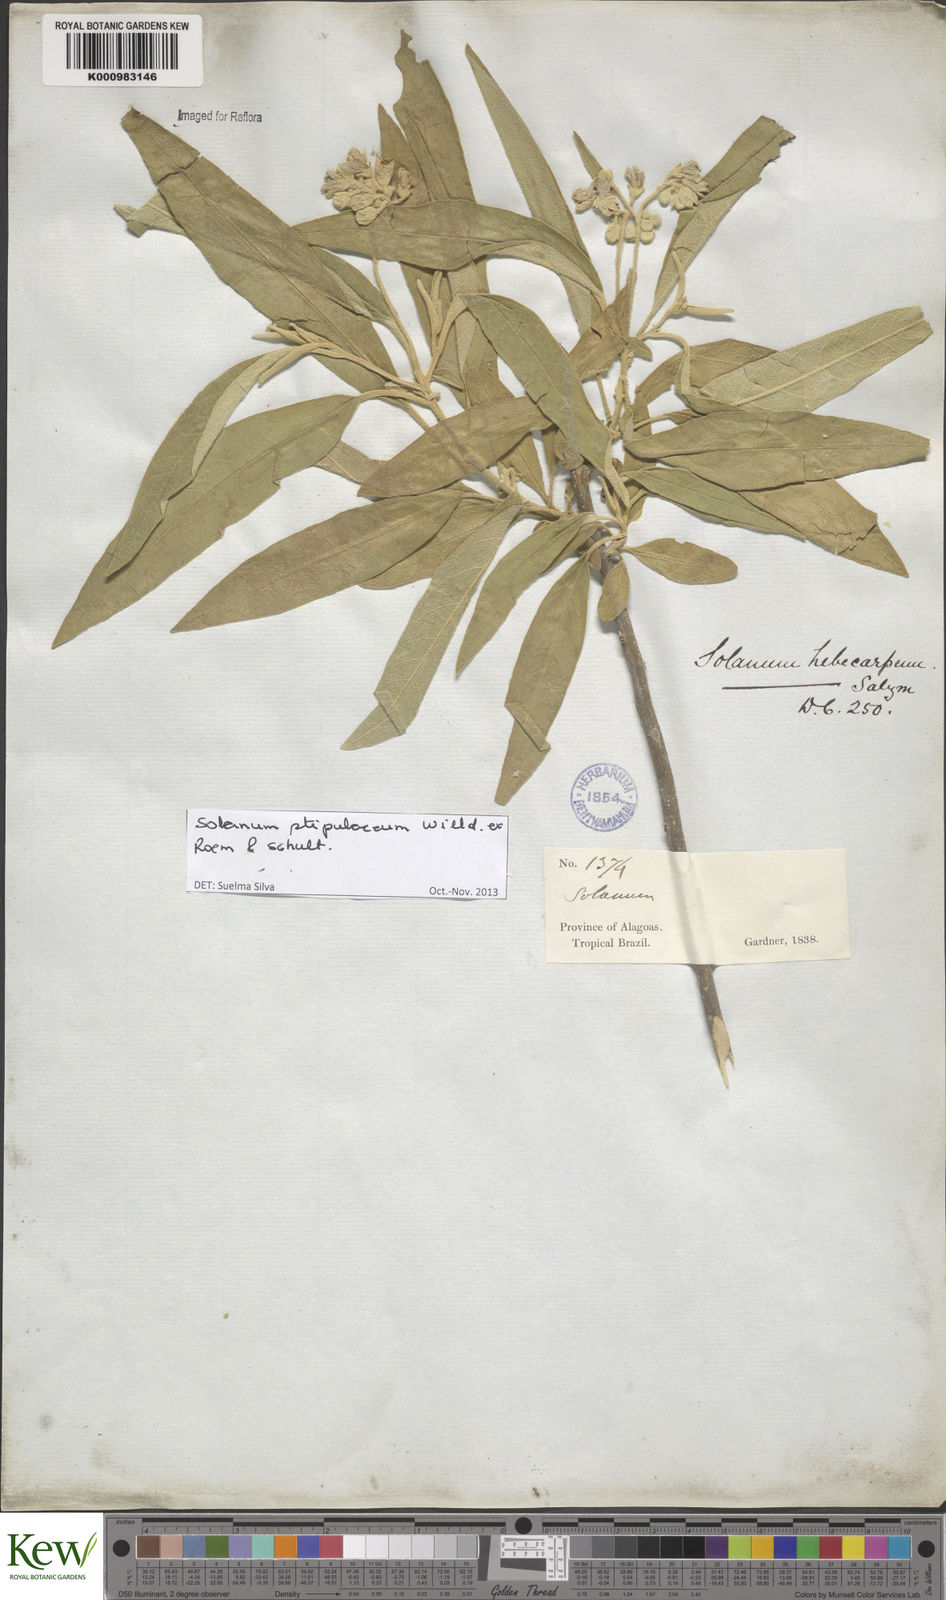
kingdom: Plantae
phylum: Tracheophyta
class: Magnoliopsida
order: Solanales
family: Solanaceae
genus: Solanum
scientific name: Solanum stipulaceum
